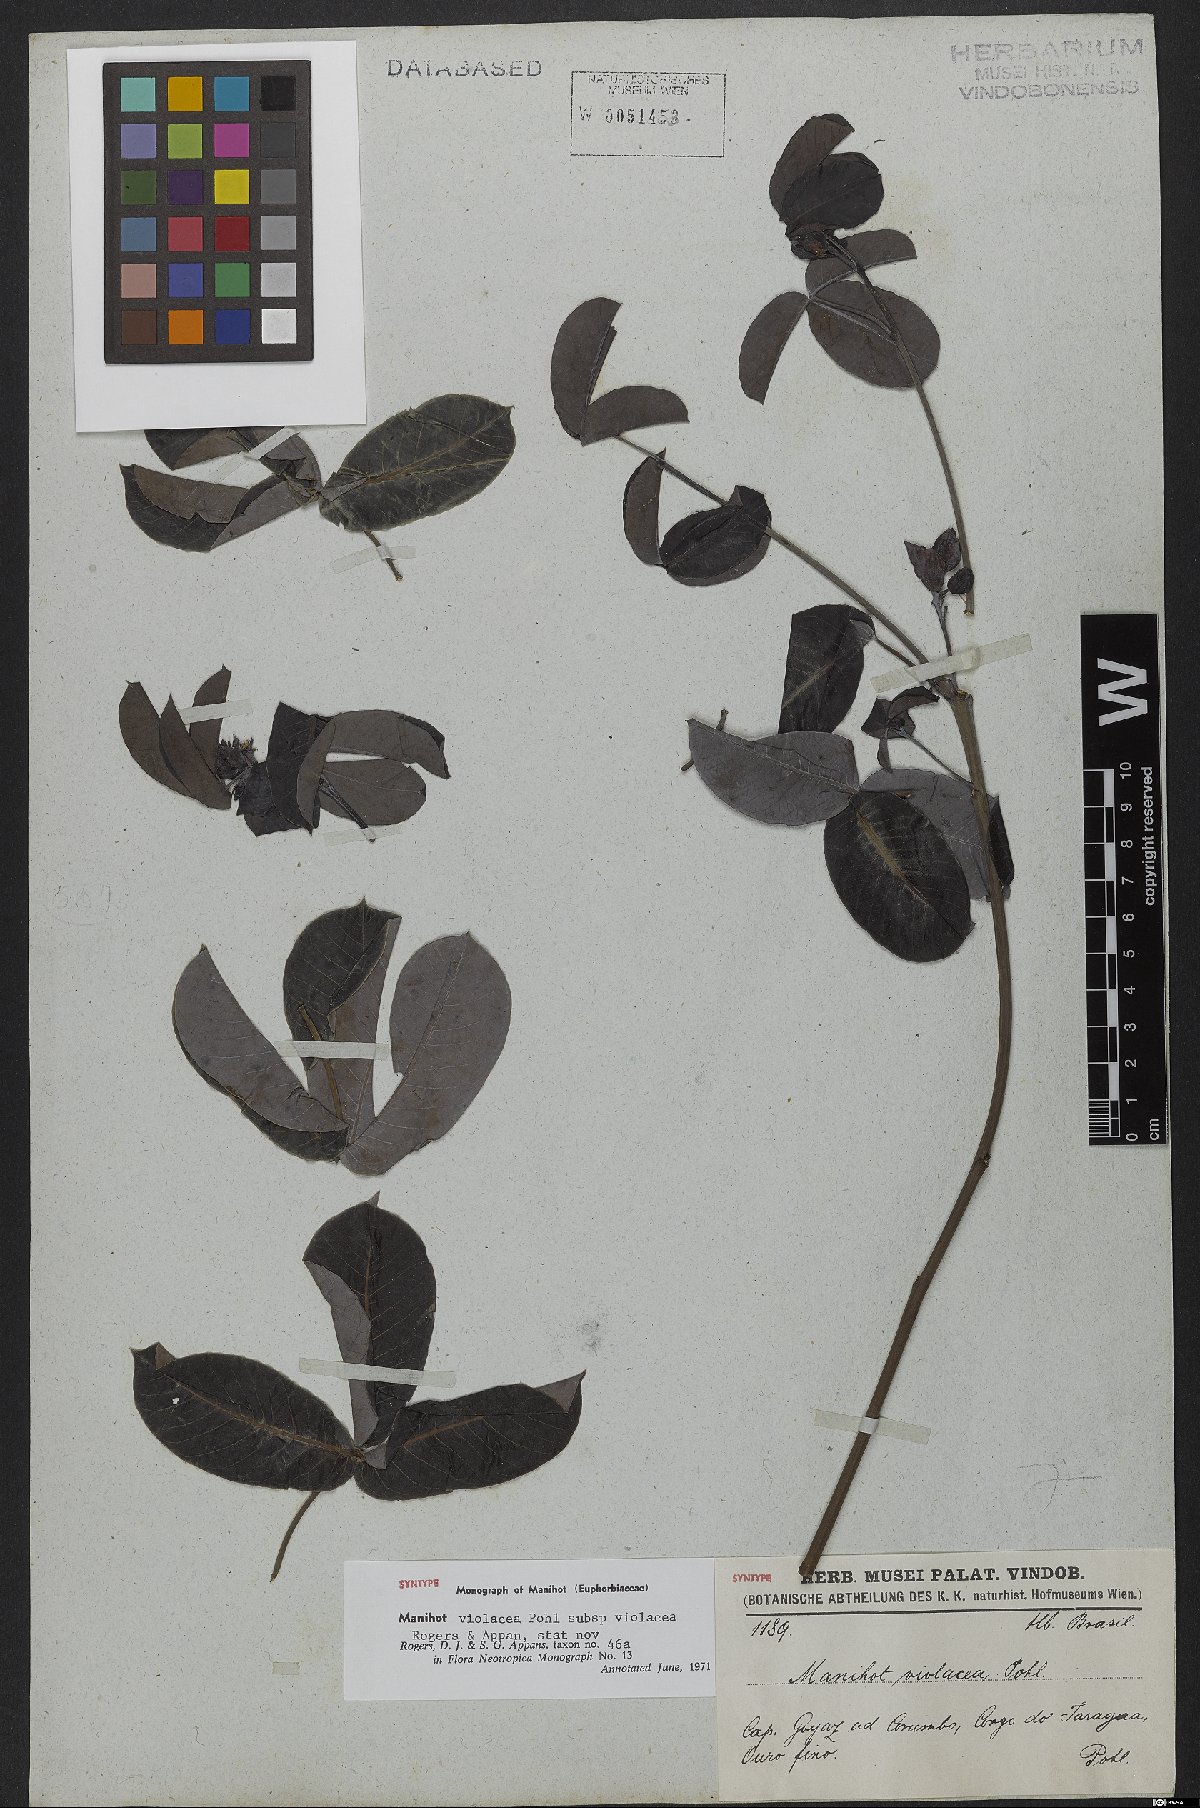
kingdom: Plantae
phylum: Tracheophyta
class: Magnoliopsida
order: Malpighiales
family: Euphorbiaceae
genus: Manihot
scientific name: Manihot violacea
